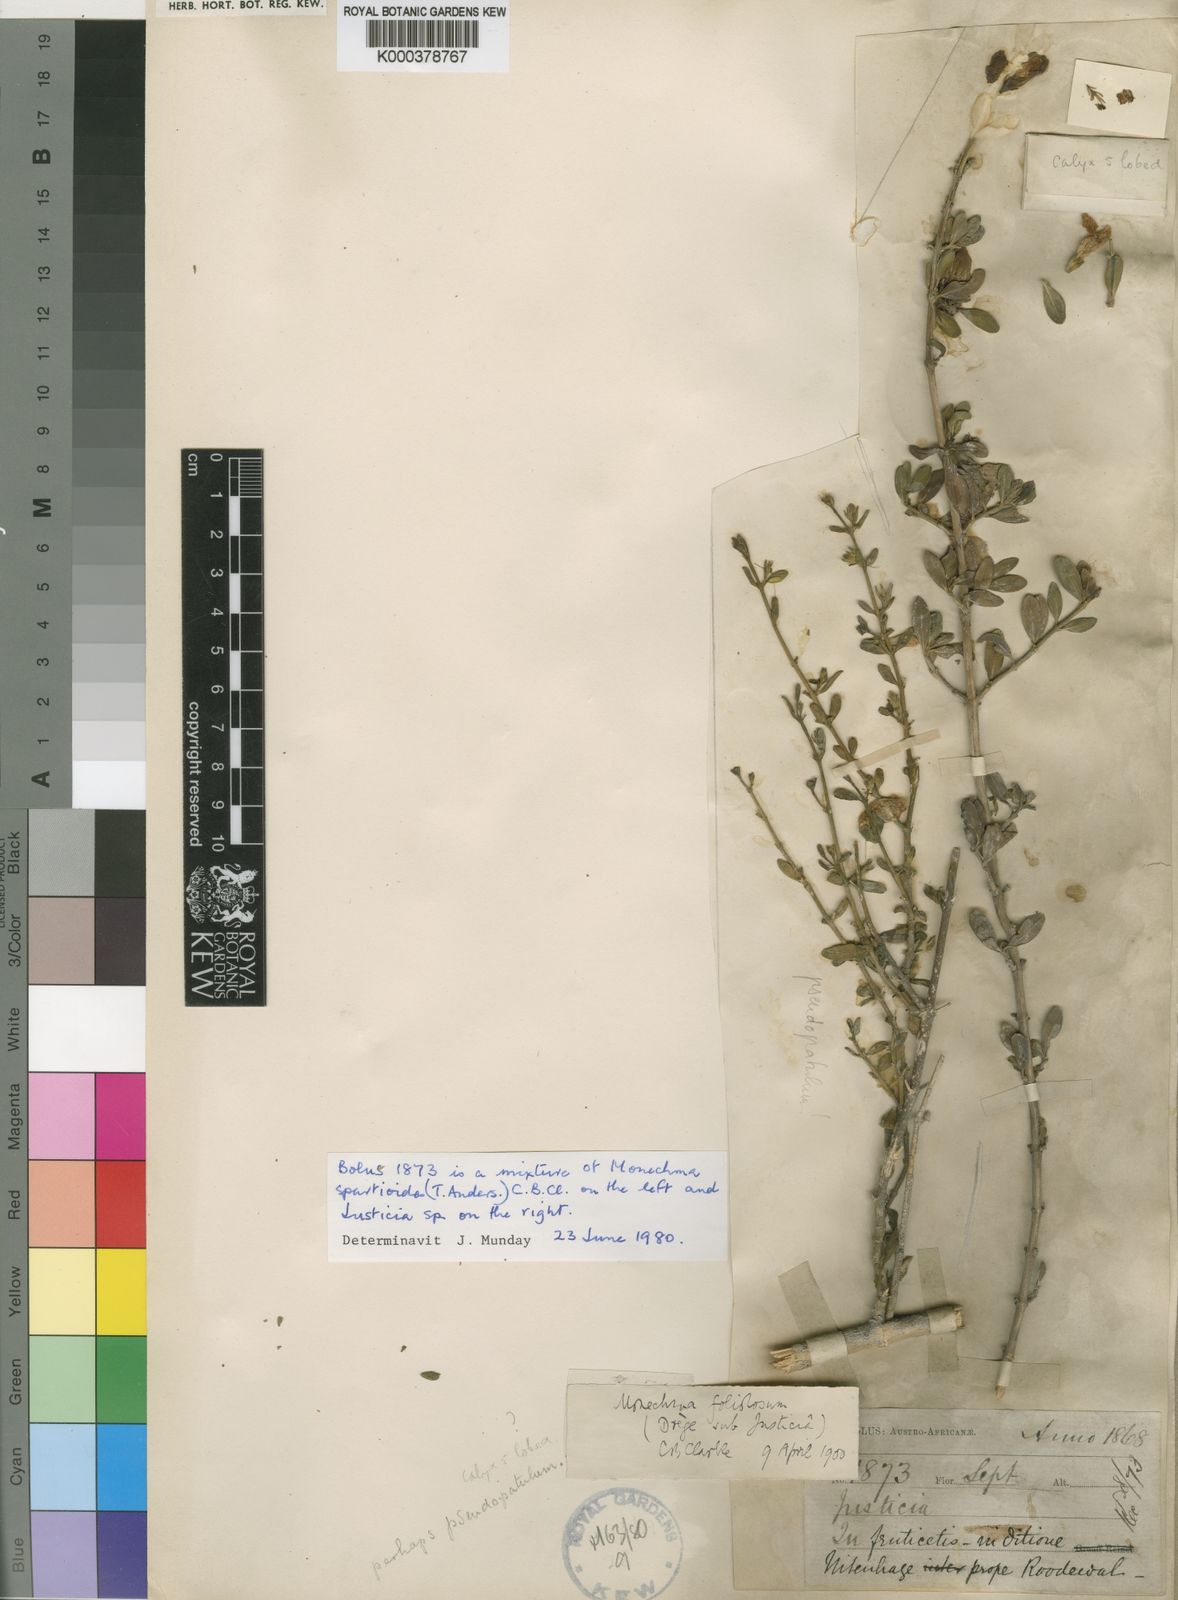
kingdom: Plantae
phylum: Tracheophyta
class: Magnoliopsida
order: Lamiales
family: Acanthaceae
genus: Justicia
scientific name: Justicia cuneata
